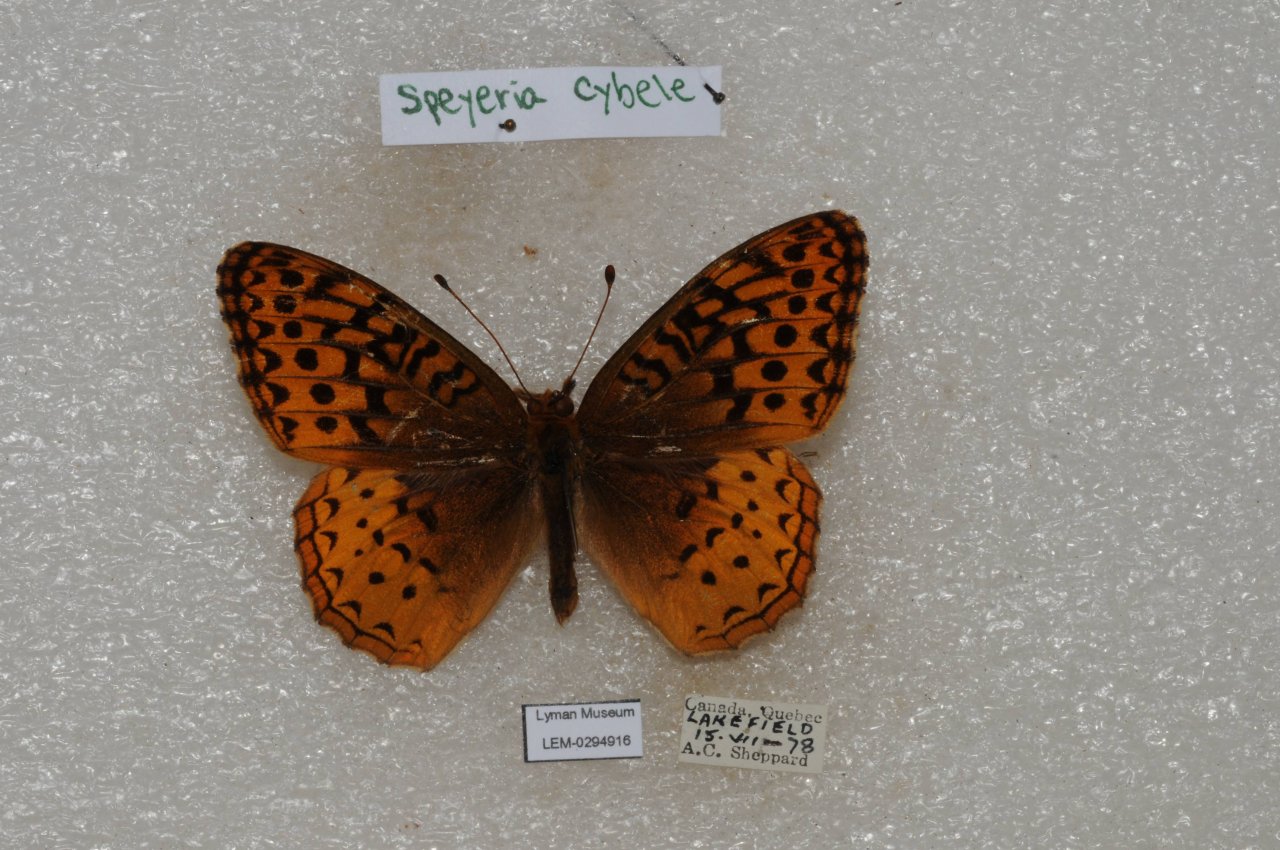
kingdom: Animalia
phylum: Arthropoda
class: Insecta
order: Lepidoptera
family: Nymphalidae
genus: Speyeria
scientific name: Speyeria cybele
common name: Great Spangled Fritillary
